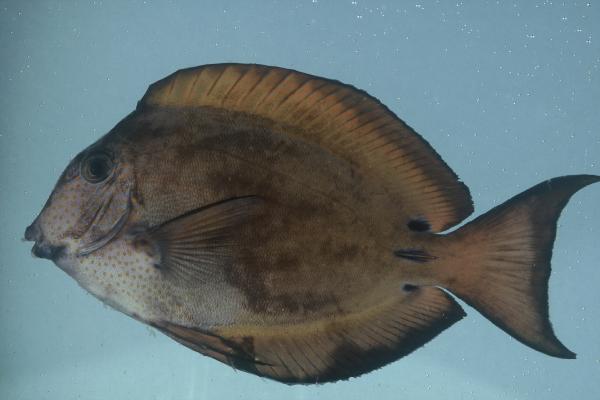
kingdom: Animalia
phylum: Chordata
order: Perciformes
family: Acanthuridae
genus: Acanthurus
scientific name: Acanthurus nigrofuscus
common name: Blackspot surgeonfish
